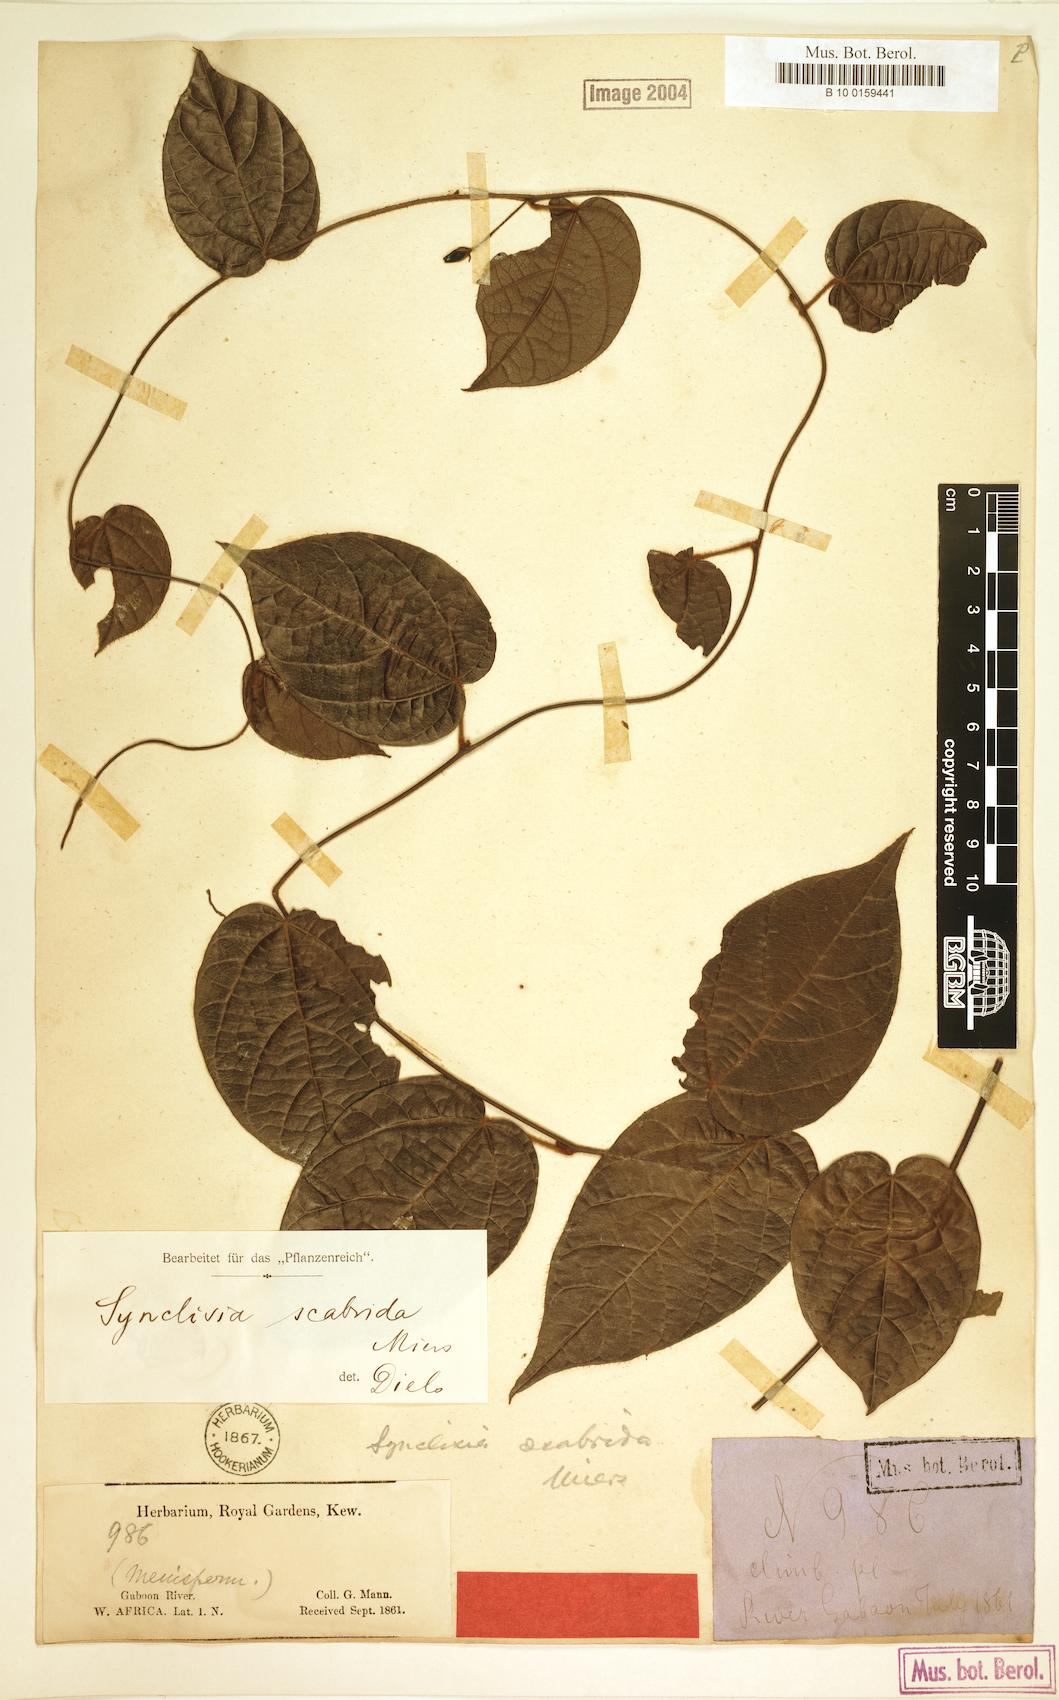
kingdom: Plantae
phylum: Tracheophyta
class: Magnoliopsida
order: Ranunculales
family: Menispermaceae
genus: Synclisia
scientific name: Synclisia scabrida
